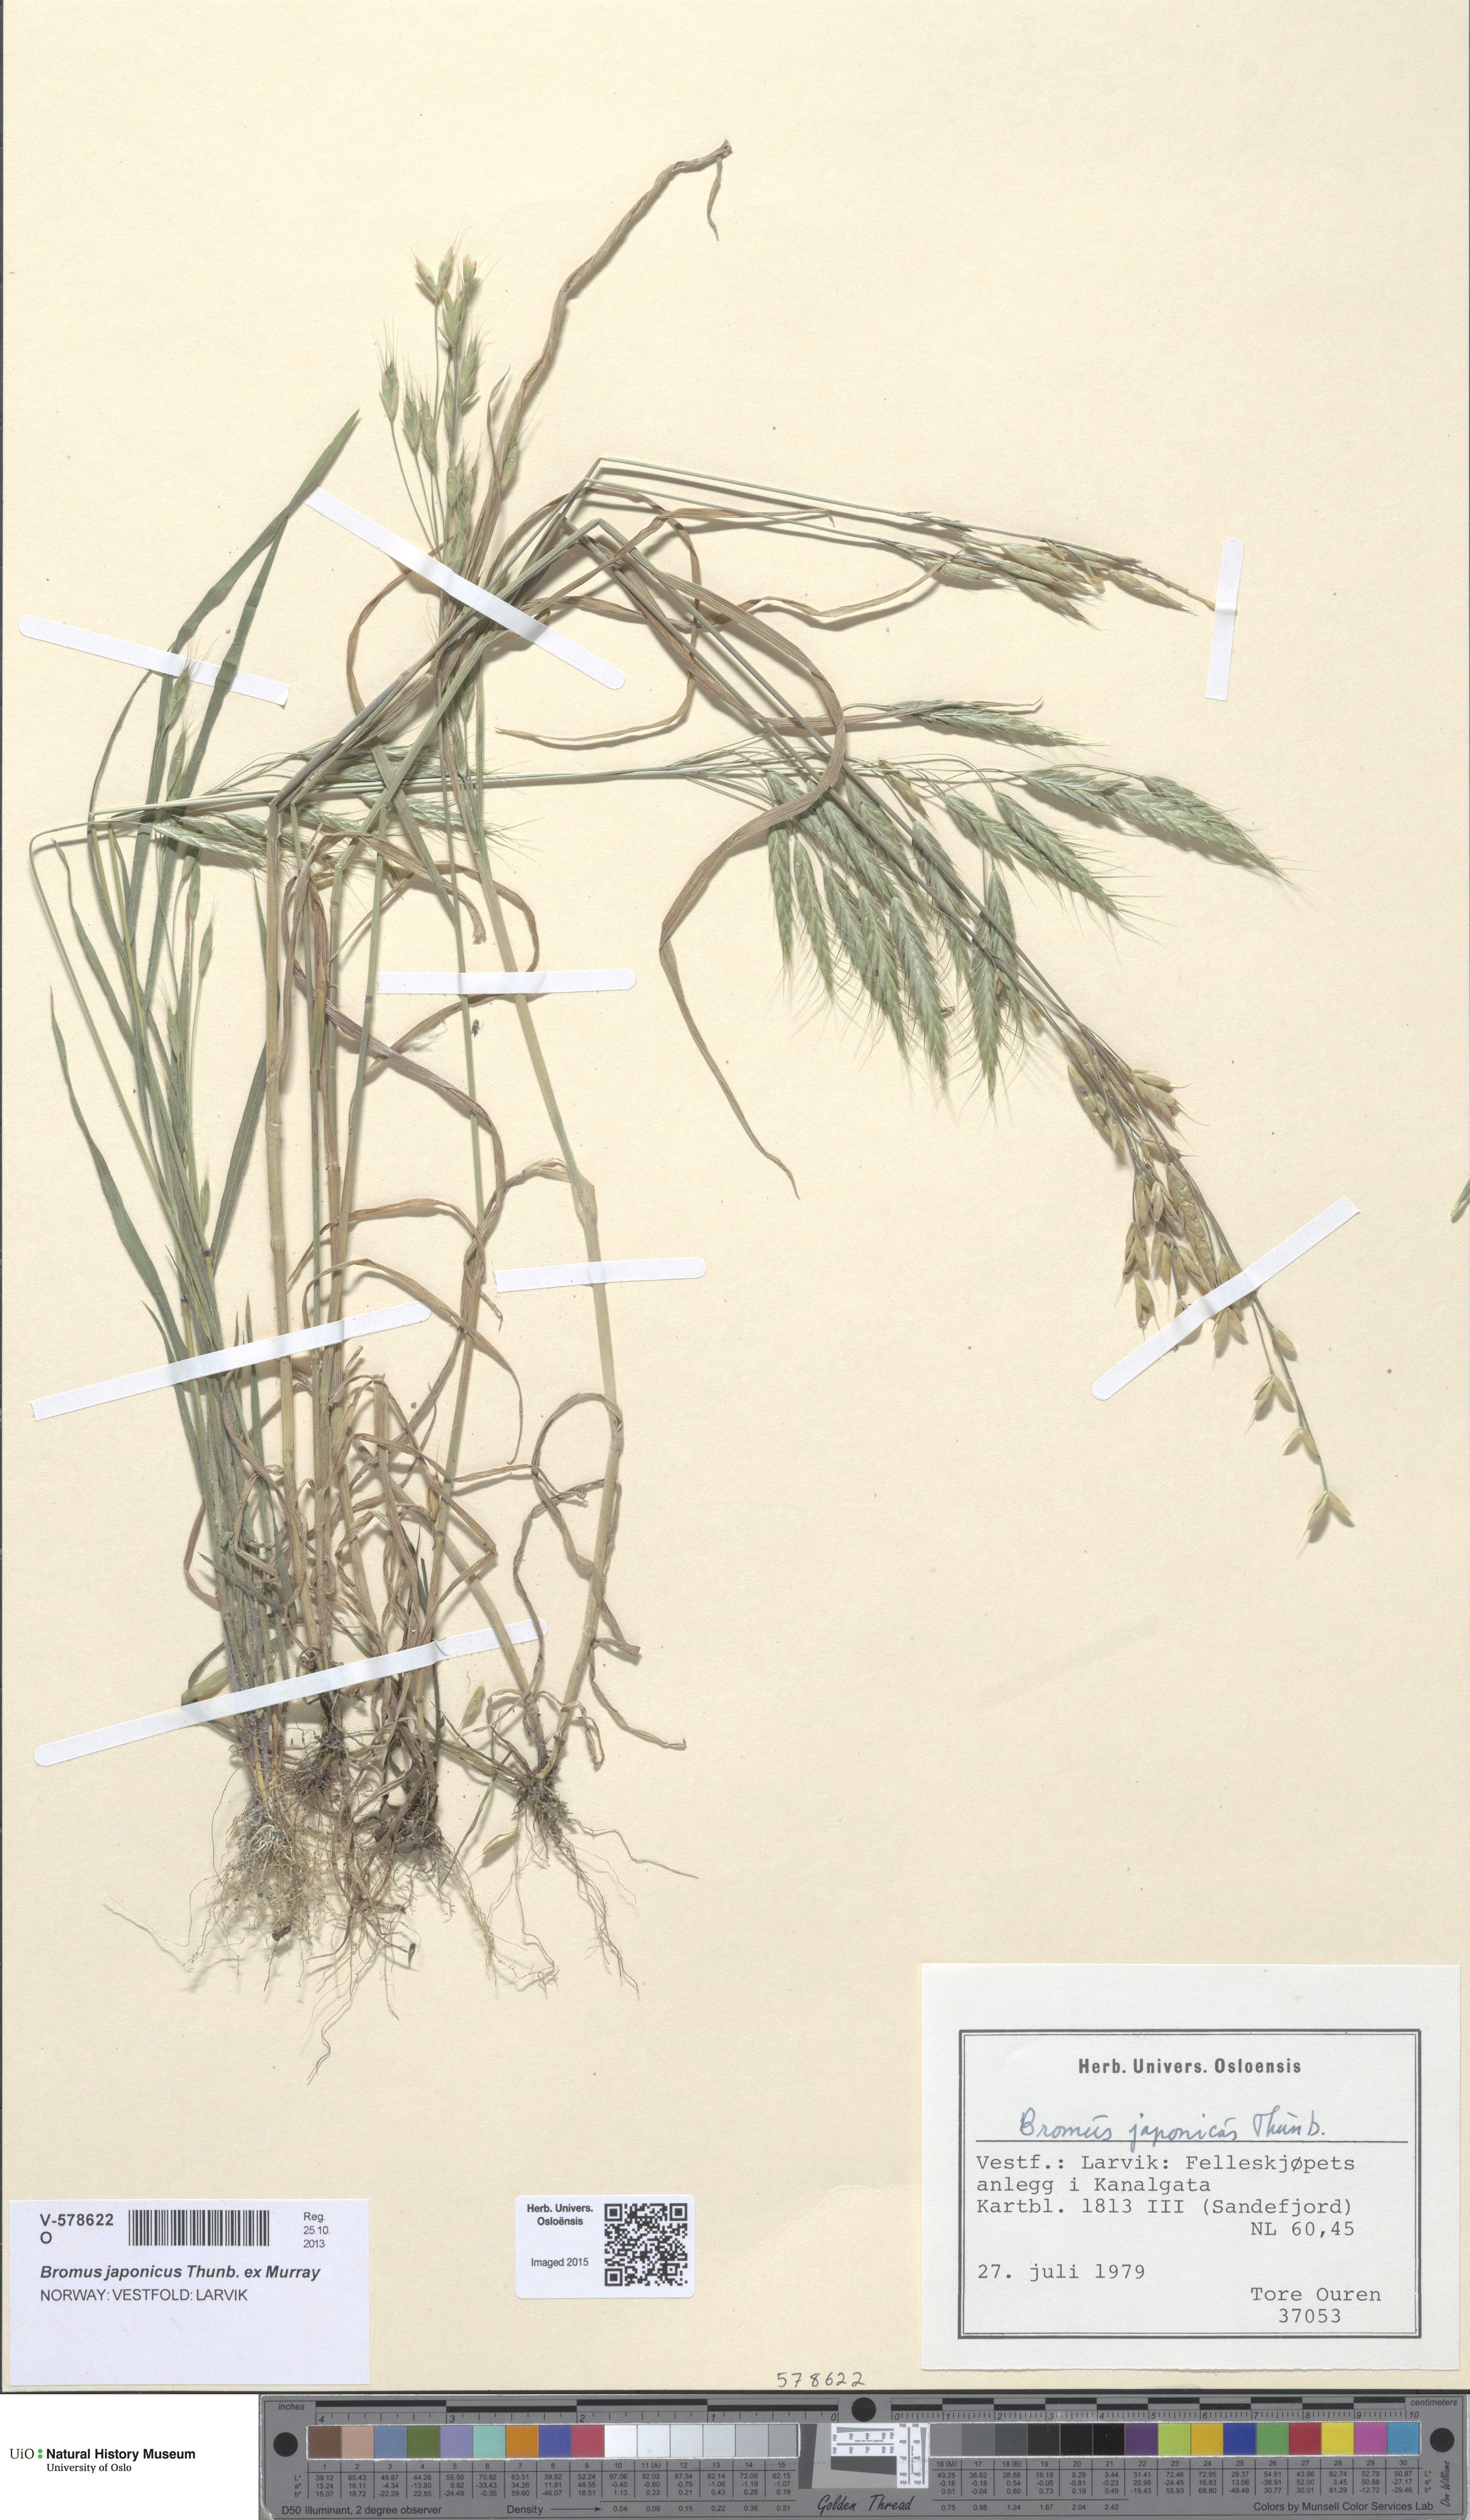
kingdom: Plantae
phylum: Tracheophyta
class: Liliopsida
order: Poales
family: Poaceae
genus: Bromus
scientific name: Bromus japonicus
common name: Japanese brome
